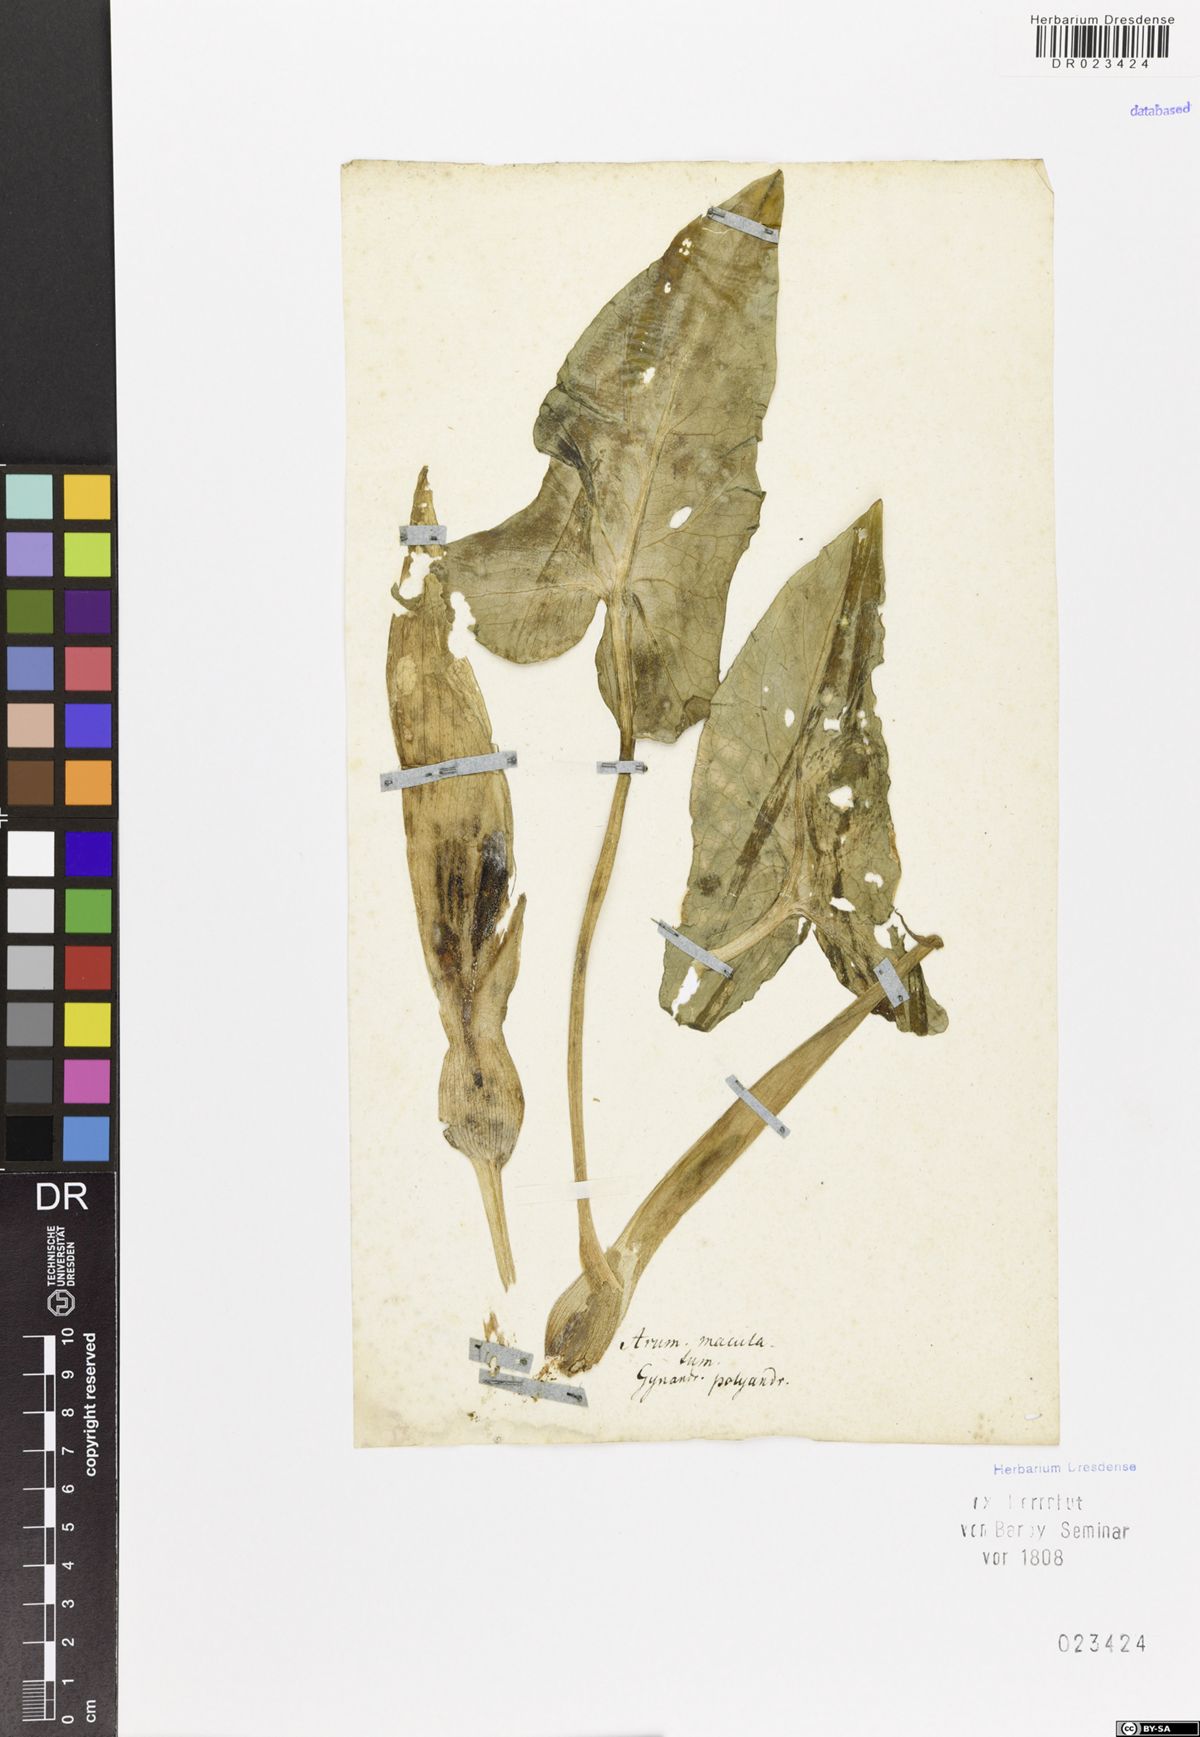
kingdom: Plantae
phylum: Tracheophyta
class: Liliopsida
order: Alismatales
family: Araceae
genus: Arum
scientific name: Arum maculatum
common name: Lords-and-ladies
